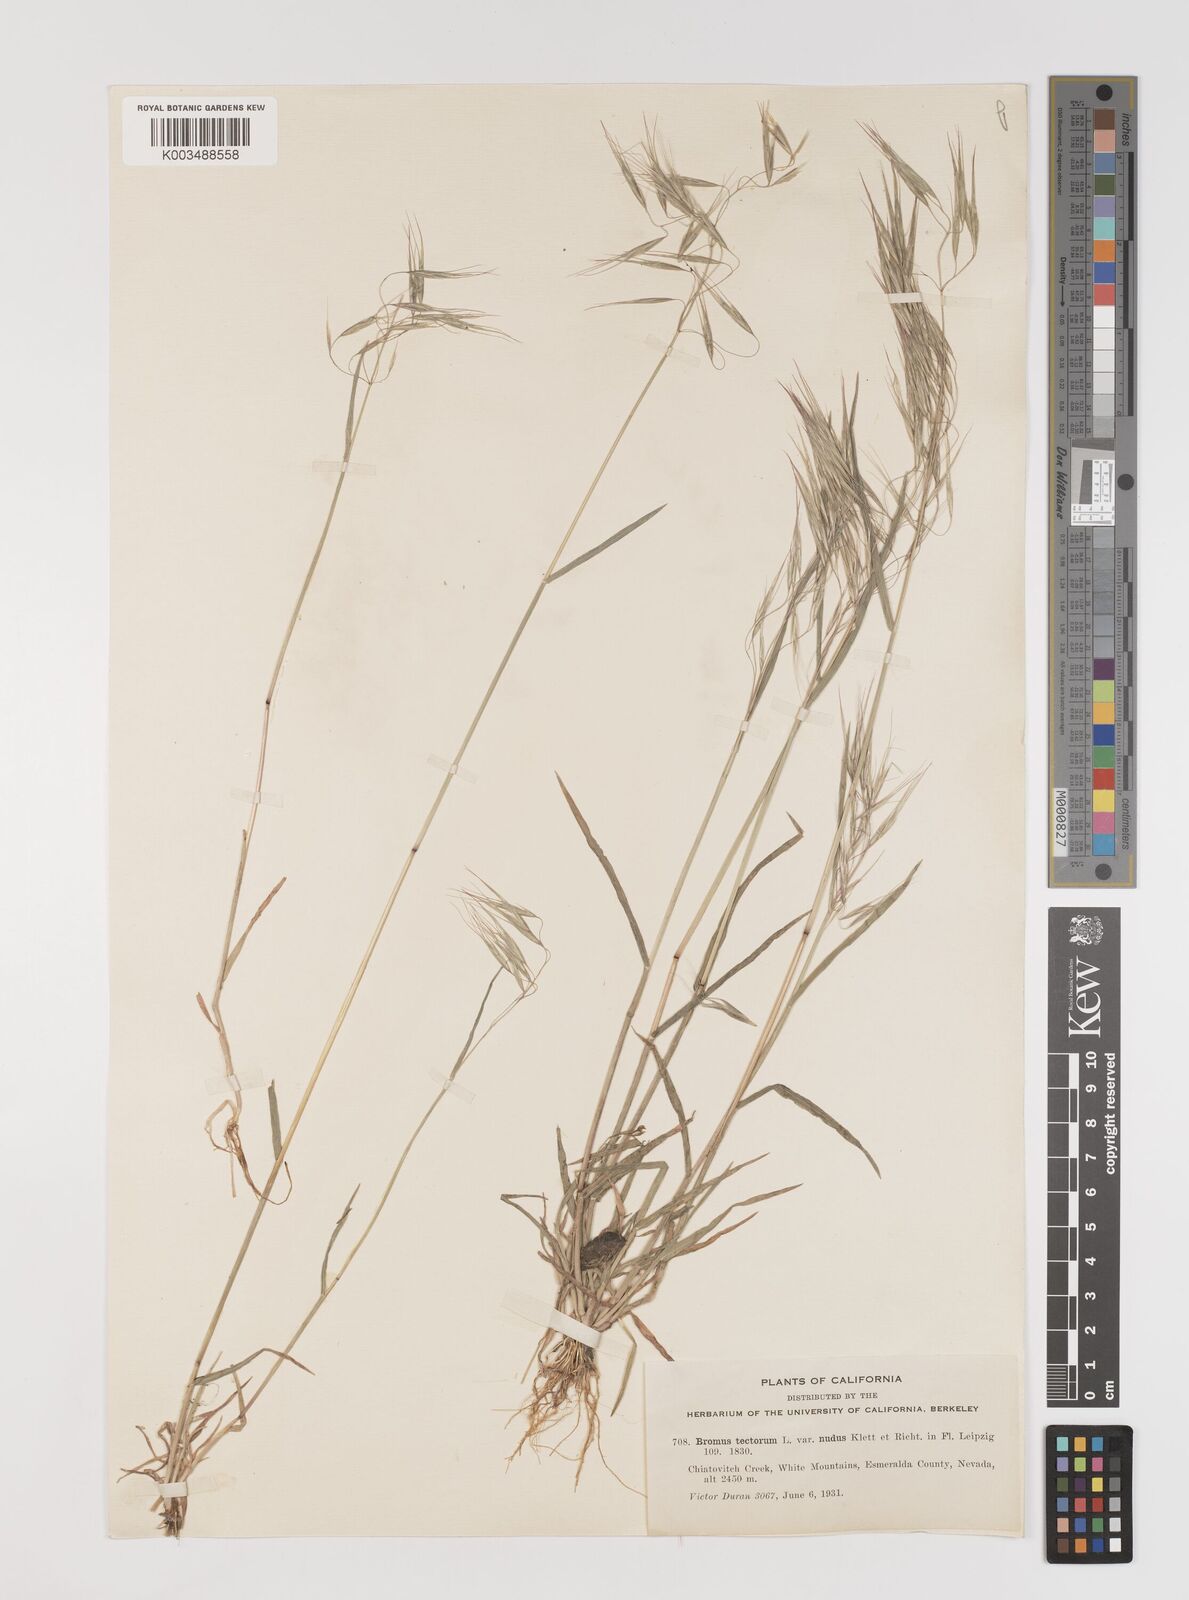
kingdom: Plantae
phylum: Tracheophyta
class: Liliopsida
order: Poales
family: Poaceae
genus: Bromus
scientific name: Bromus tectorum
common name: Cheatgrass
